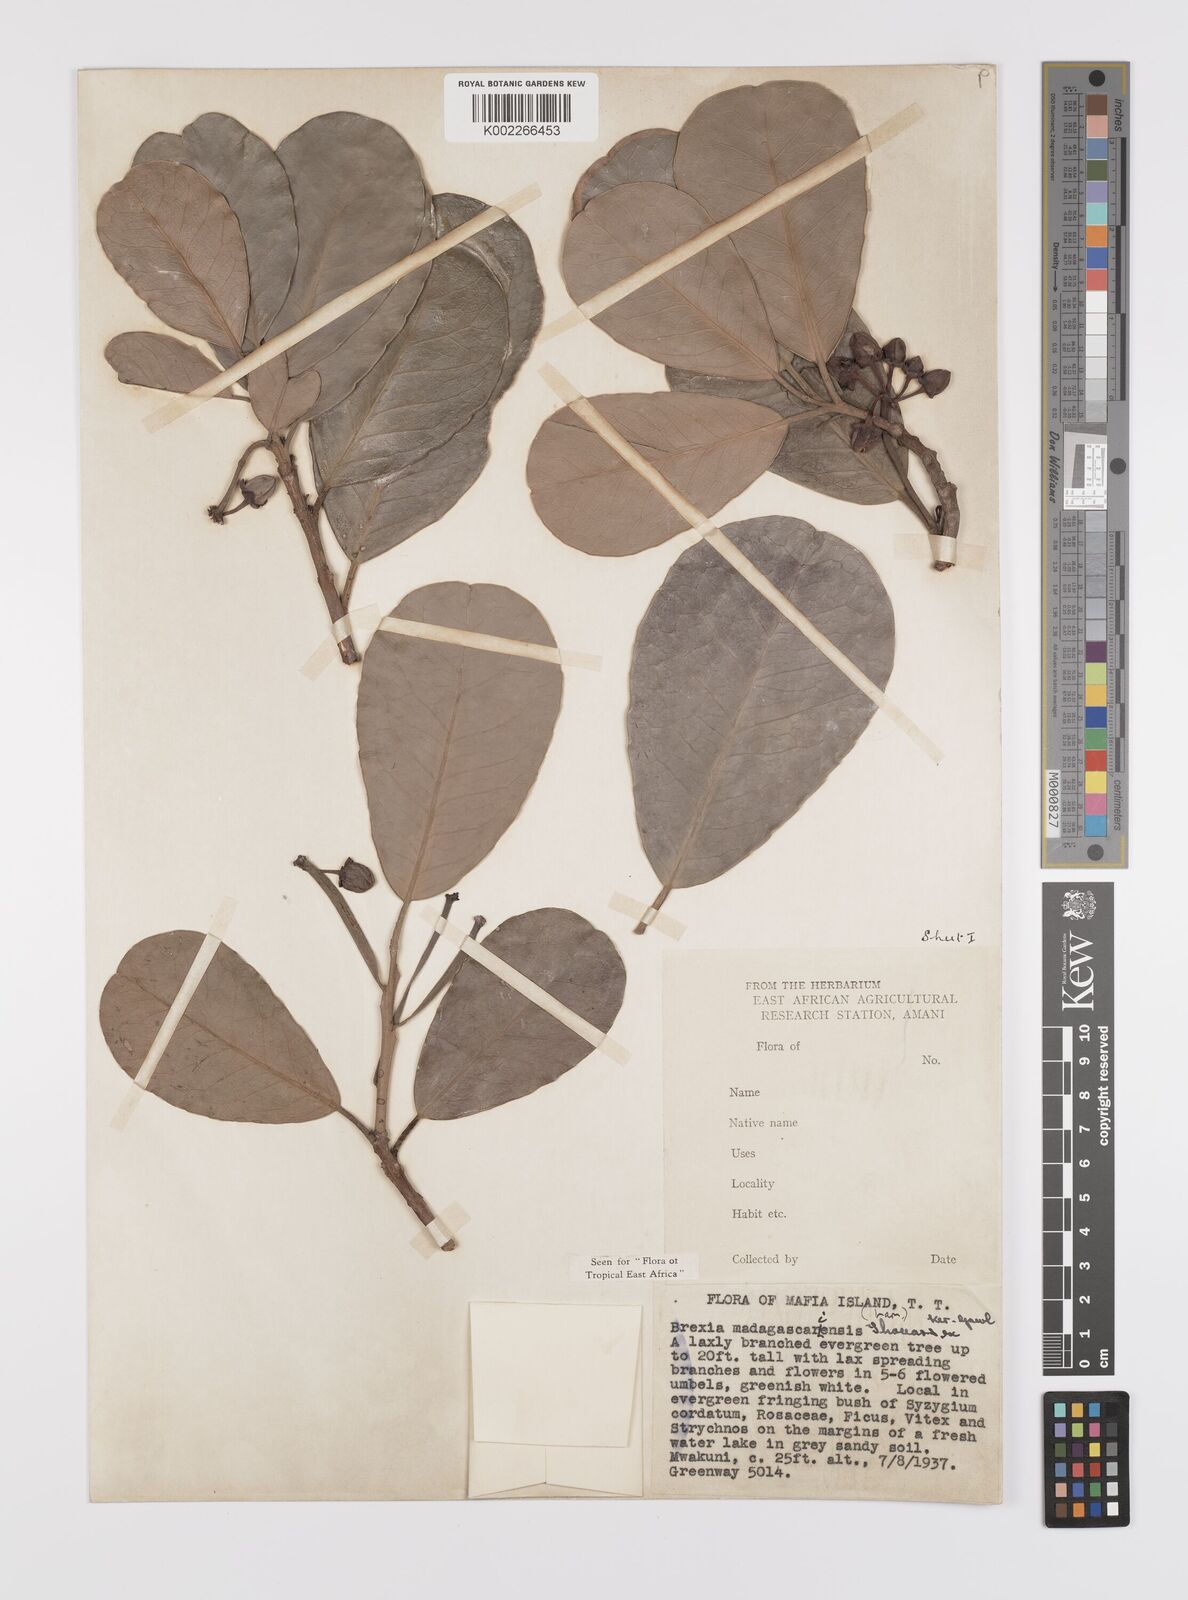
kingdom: Plantae
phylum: Tracheophyta
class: Magnoliopsida
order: Celastrales
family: Celastraceae
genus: Brexia
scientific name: Brexia madagascariensis
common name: Brexia
